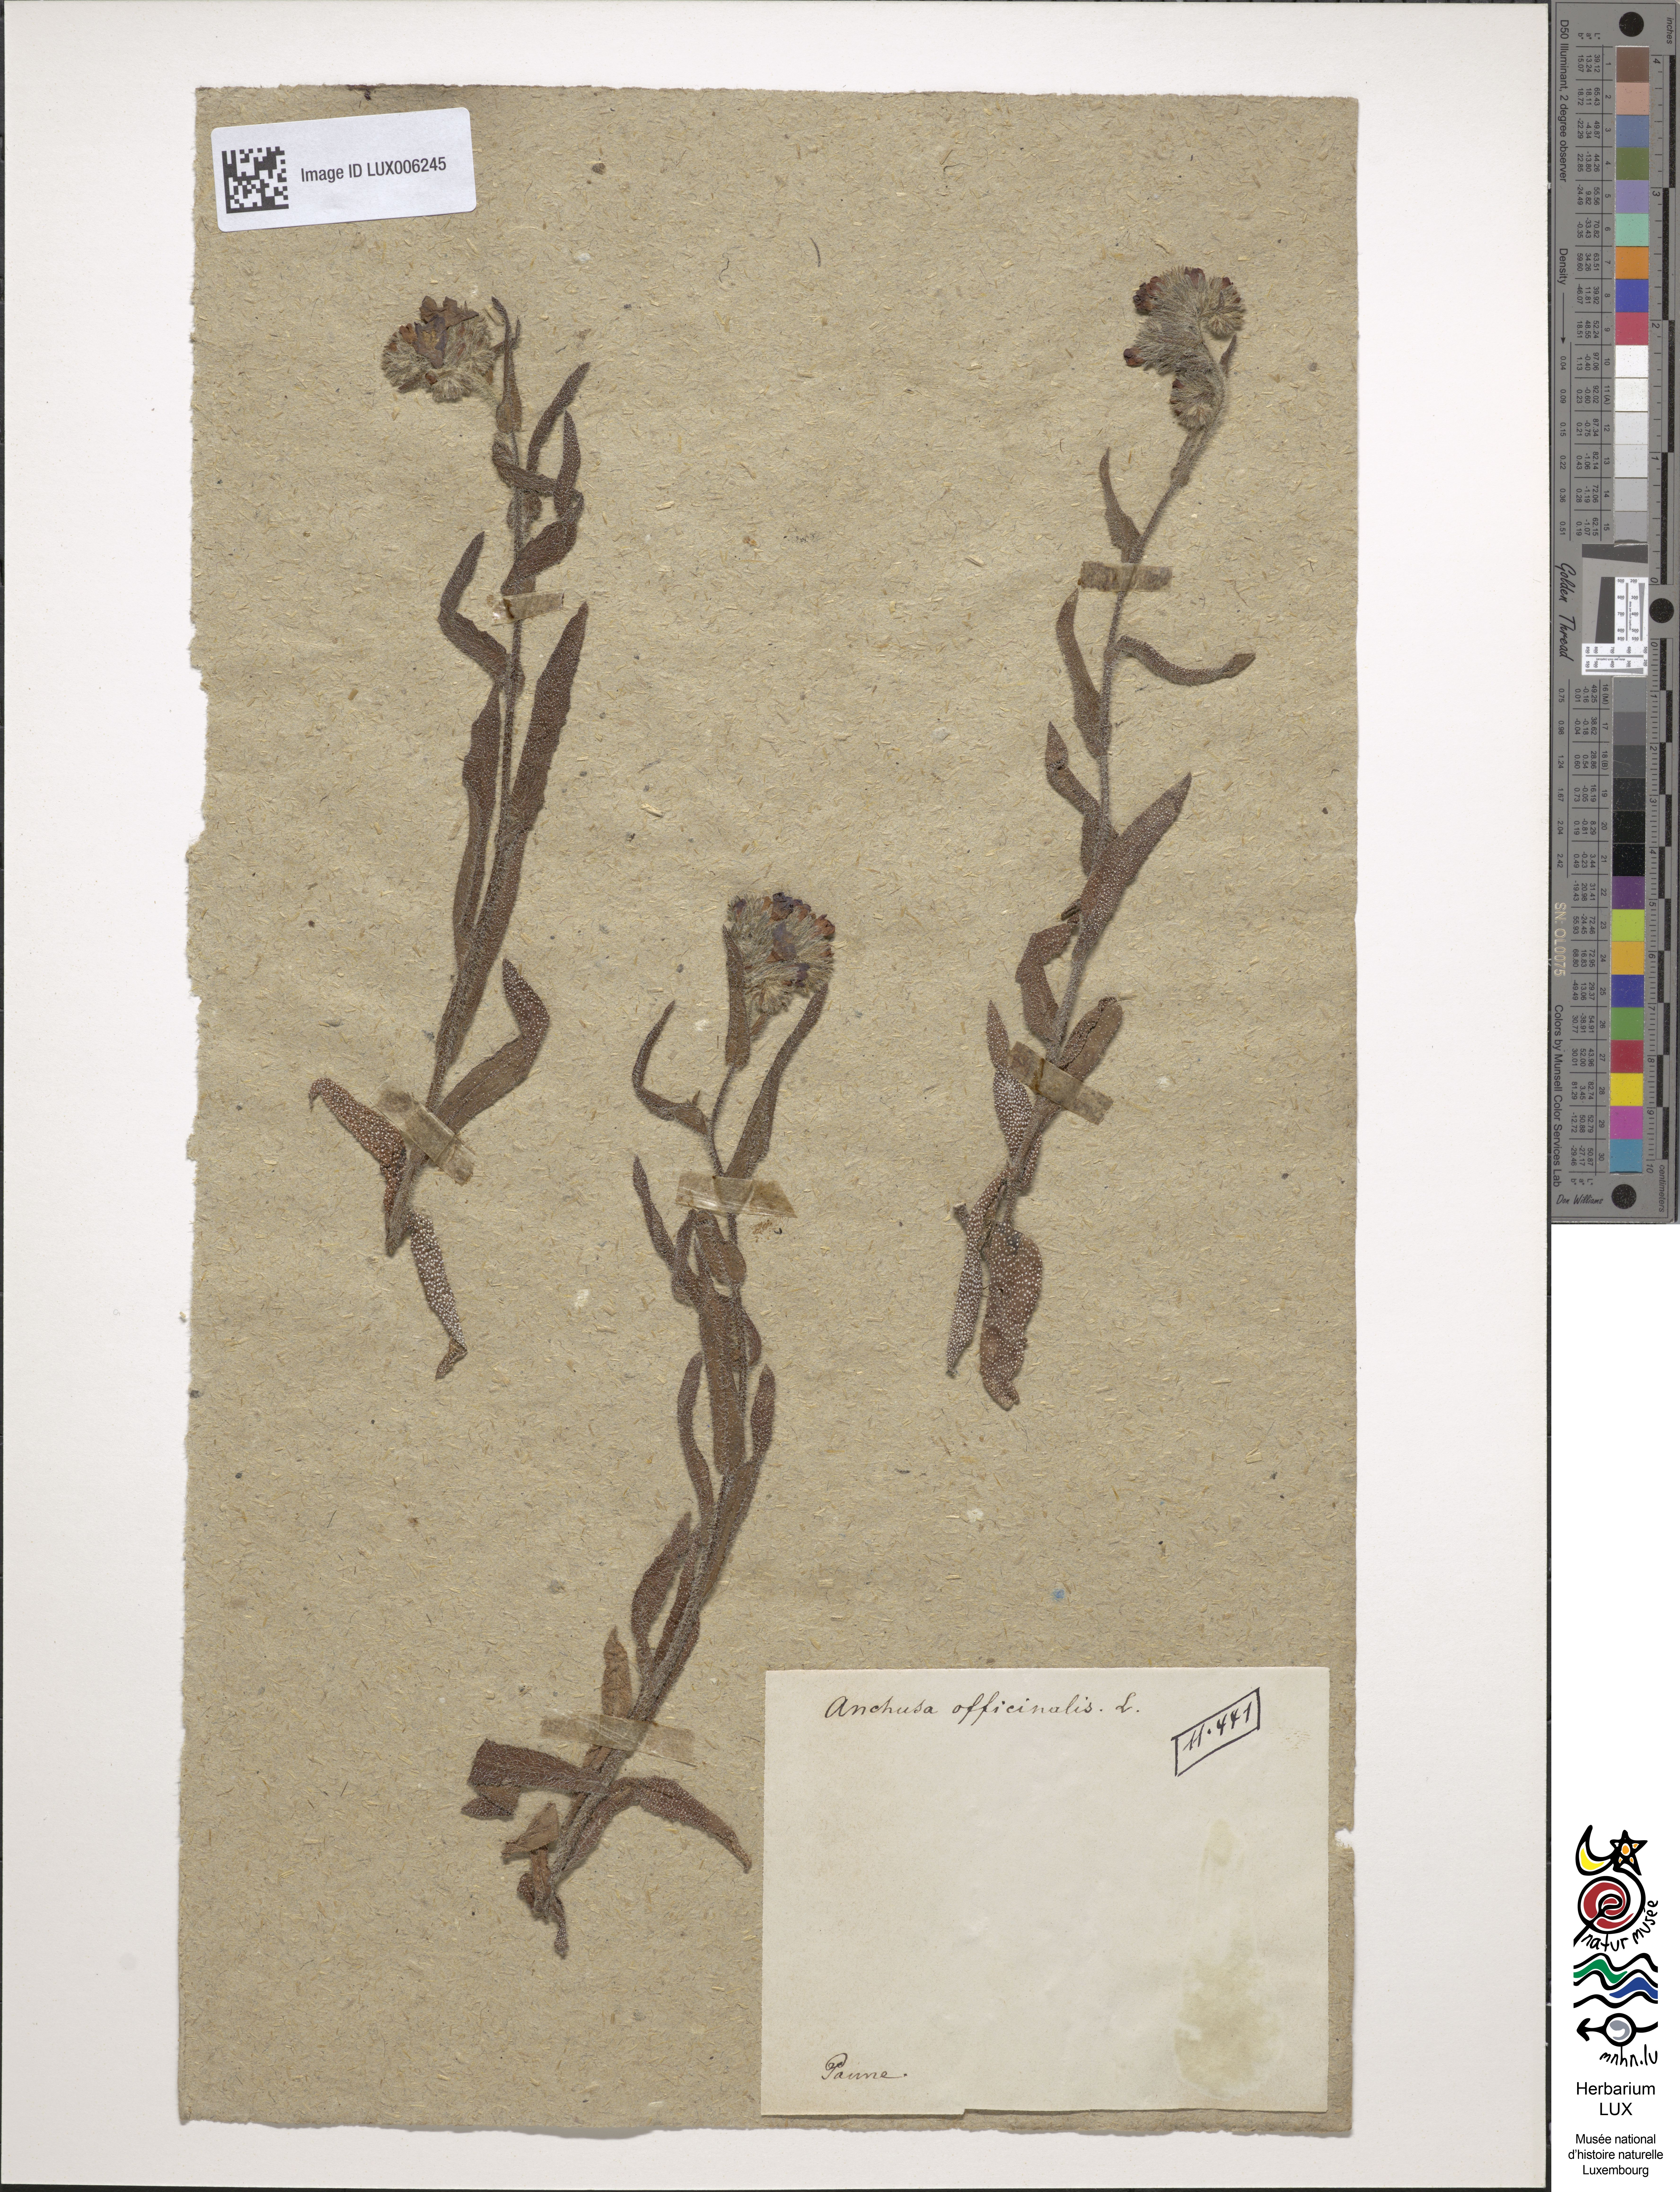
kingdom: Plantae
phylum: Tracheophyta
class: Magnoliopsida
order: Boraginales
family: Boraginaceae
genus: Anchusa
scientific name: Anchusa officinalis
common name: Alkanet
